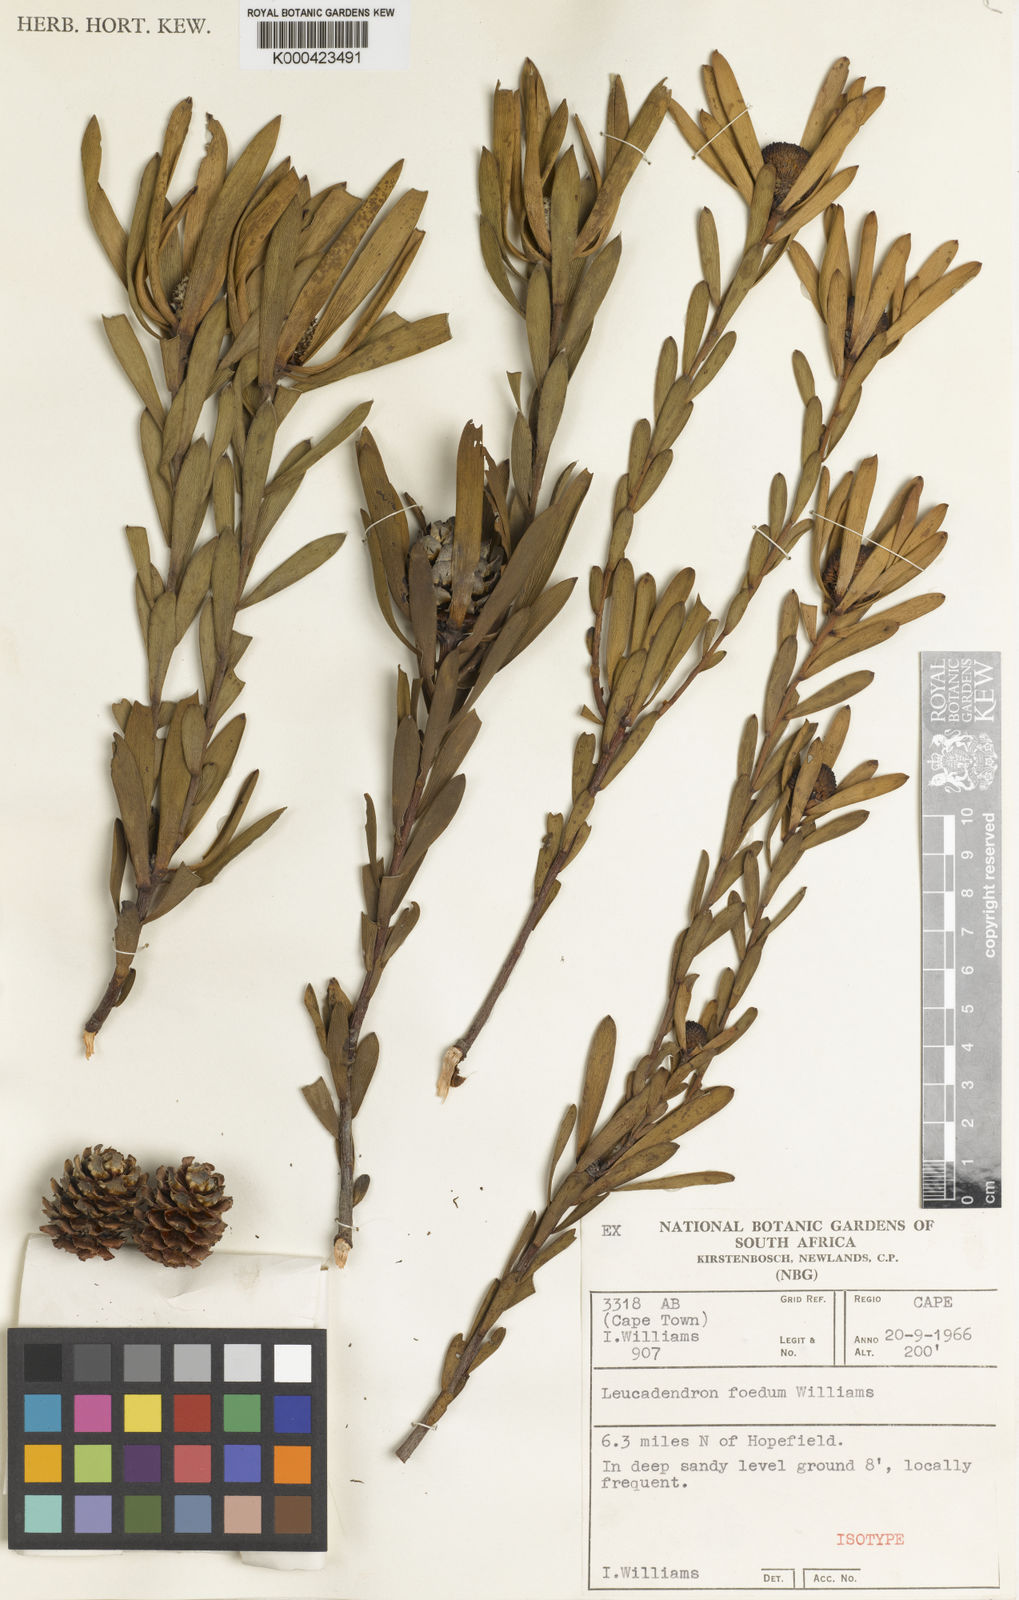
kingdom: Plantae
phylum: Tracheophyta
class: Magnoliopsida
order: Proteales
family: Proteaceae
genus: Leucadendron
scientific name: Leucadendron foedum
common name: Hopefield conebush
